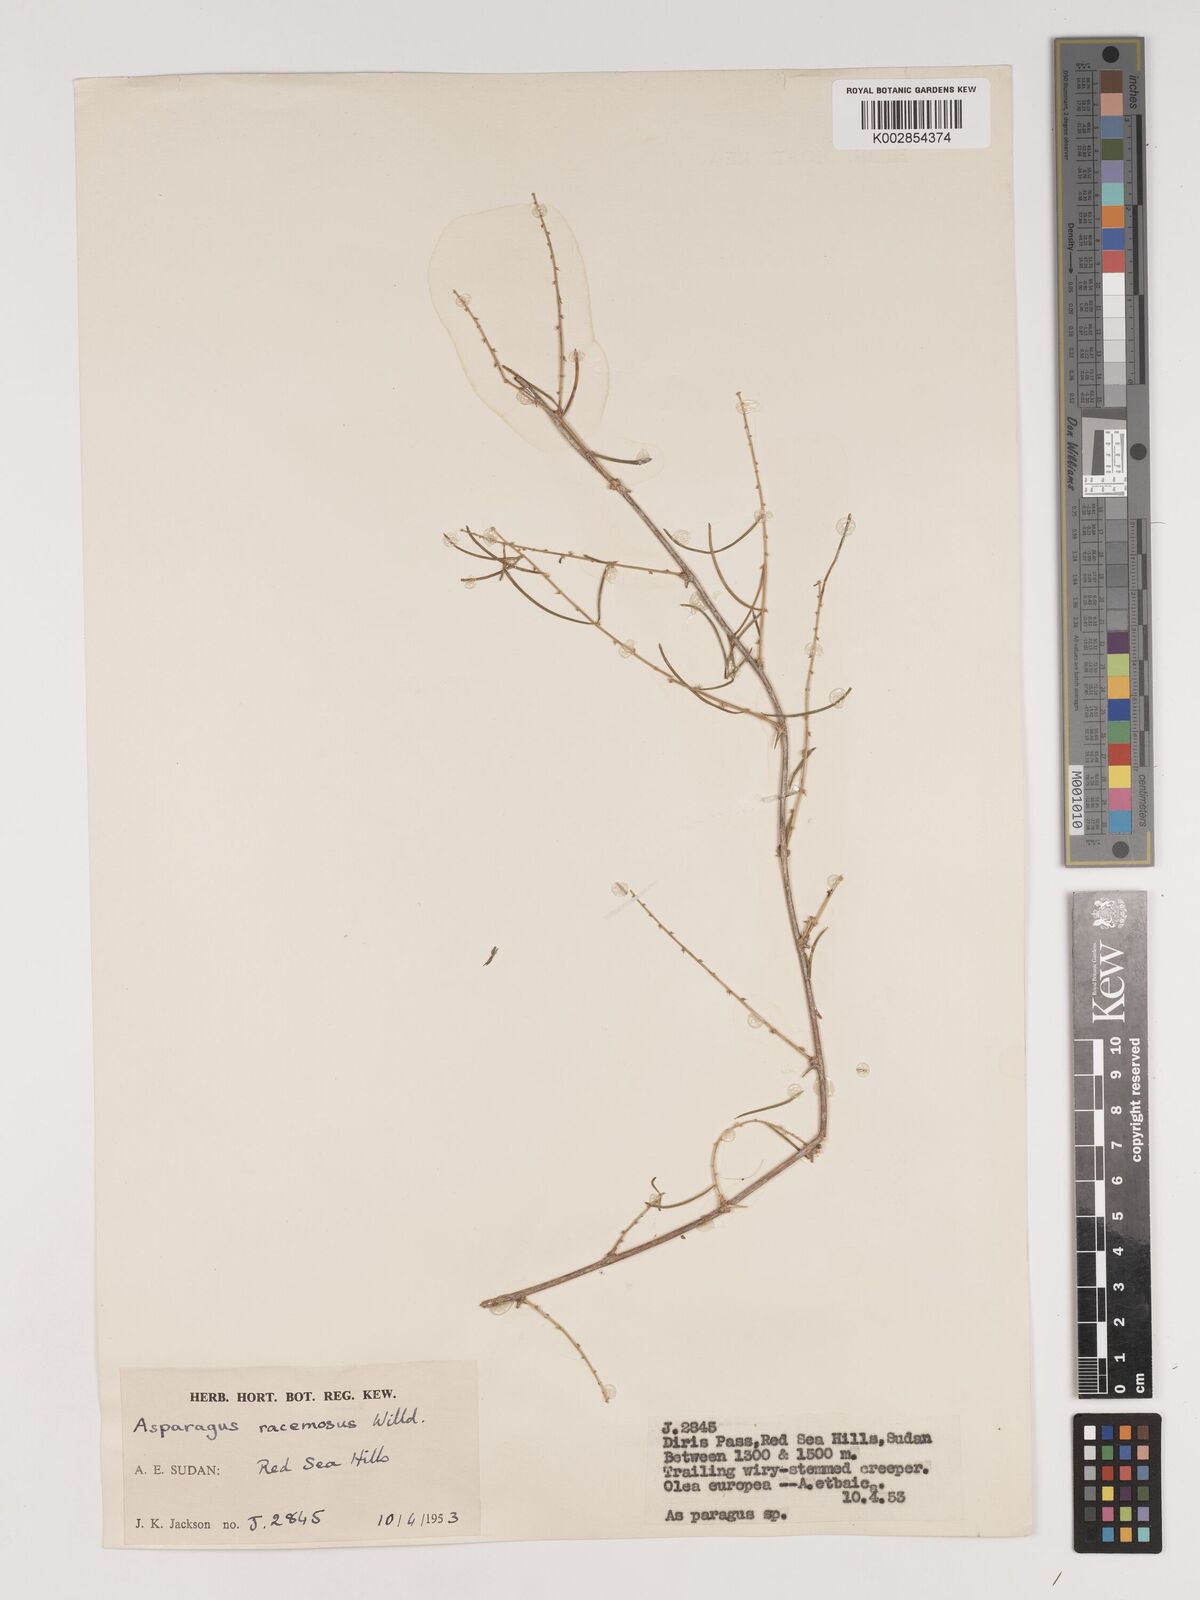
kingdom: Plantae
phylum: Tracheophyta
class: Liliopsida
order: Asparagales
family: Asparagaceae
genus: Asparagus
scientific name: Asparagus racemosus
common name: Asparagus-fern
